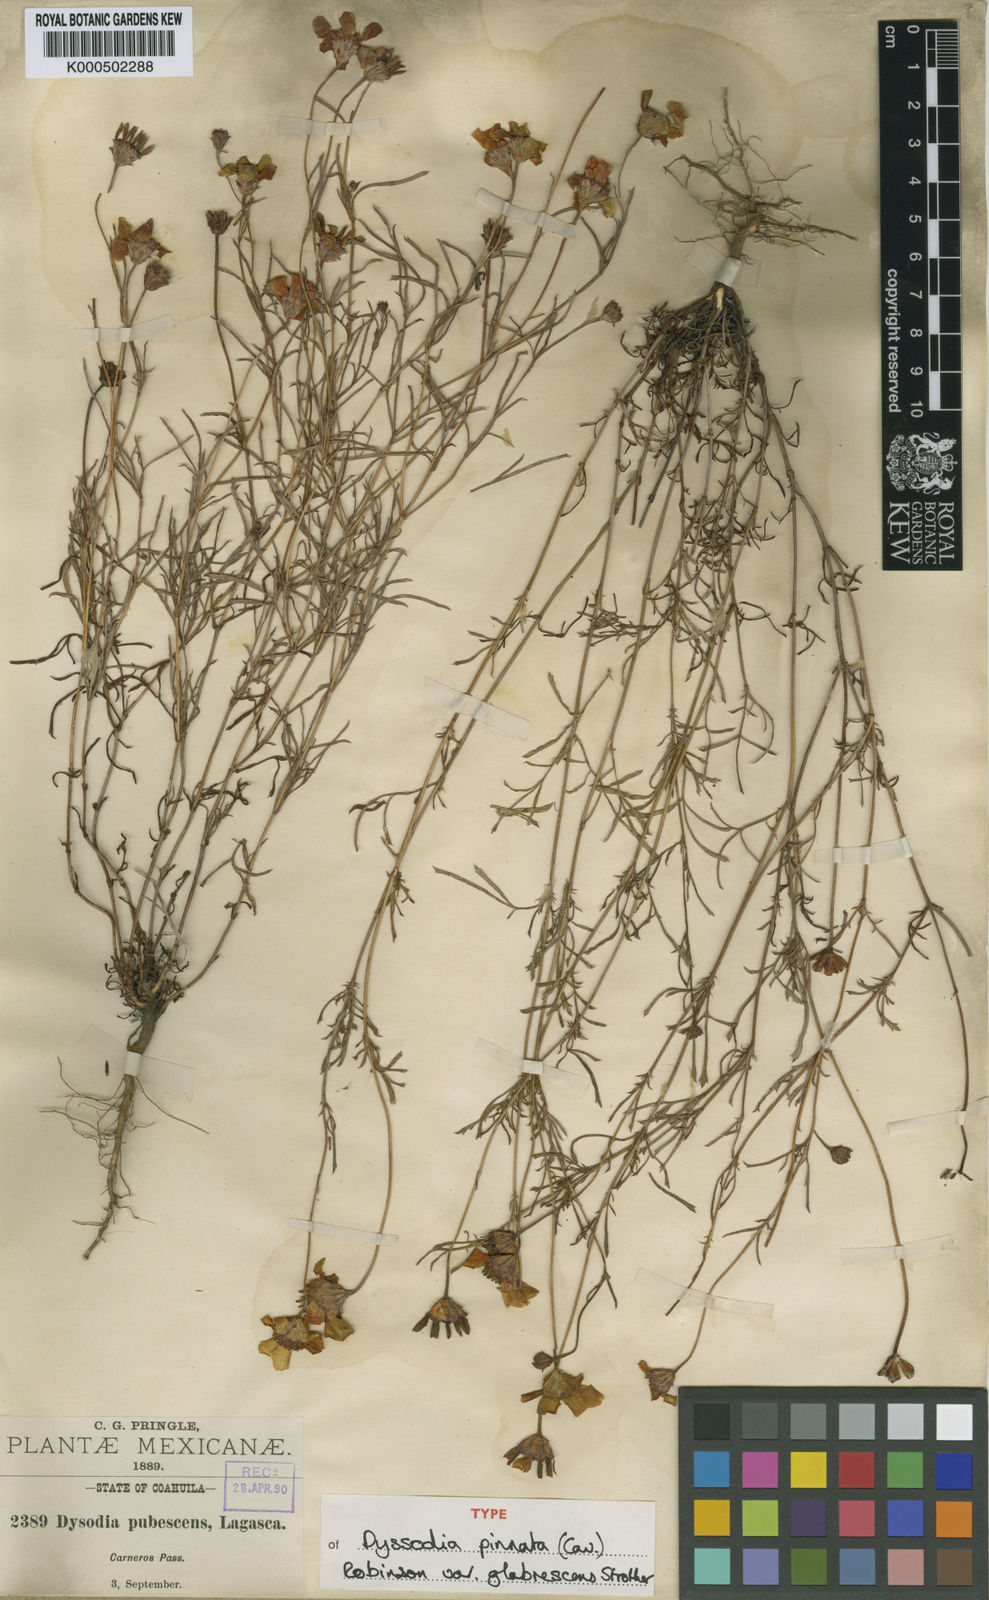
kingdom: Plantae
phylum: Tracheophyta
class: Magnoliopsida
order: Asterales
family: Asteraceae
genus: Dyssodia
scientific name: Dyssodia pinnata
